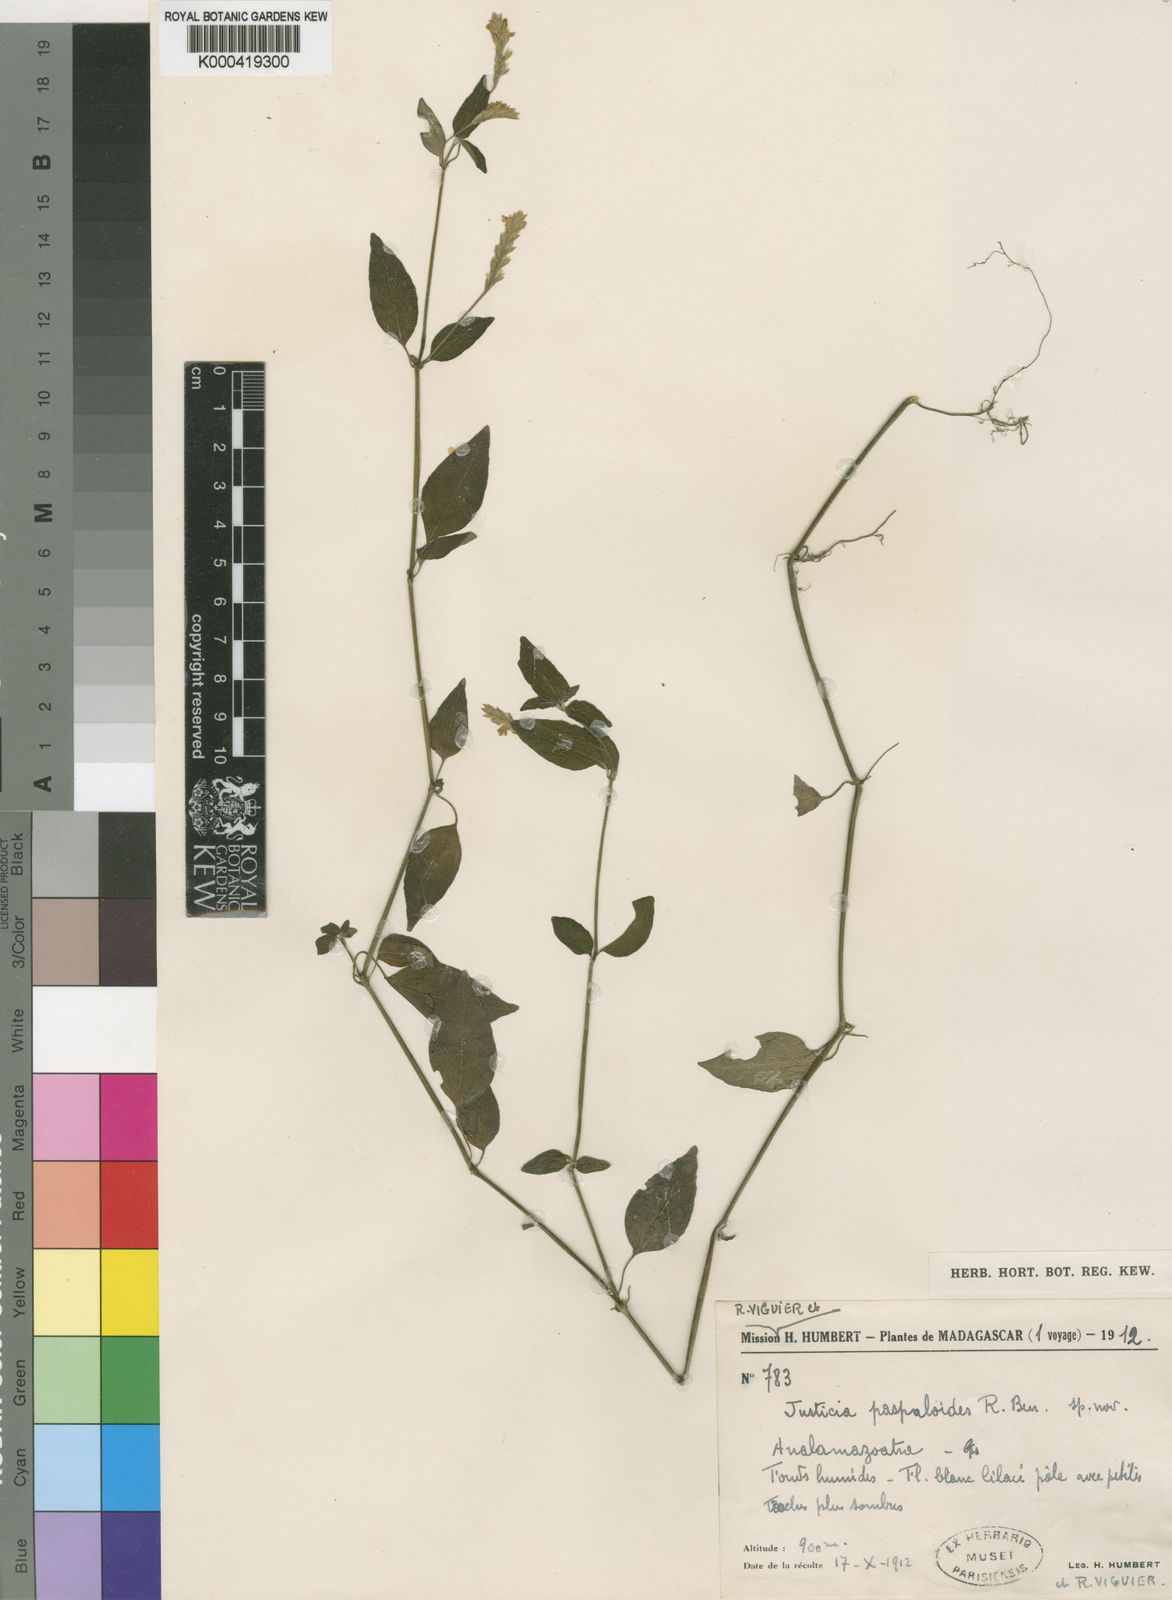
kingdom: Plantae
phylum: Tracheophyta
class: Magnoliopsida
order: Lamiales
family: Acanthaceae
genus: Justicia
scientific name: Justicia paspaloides
